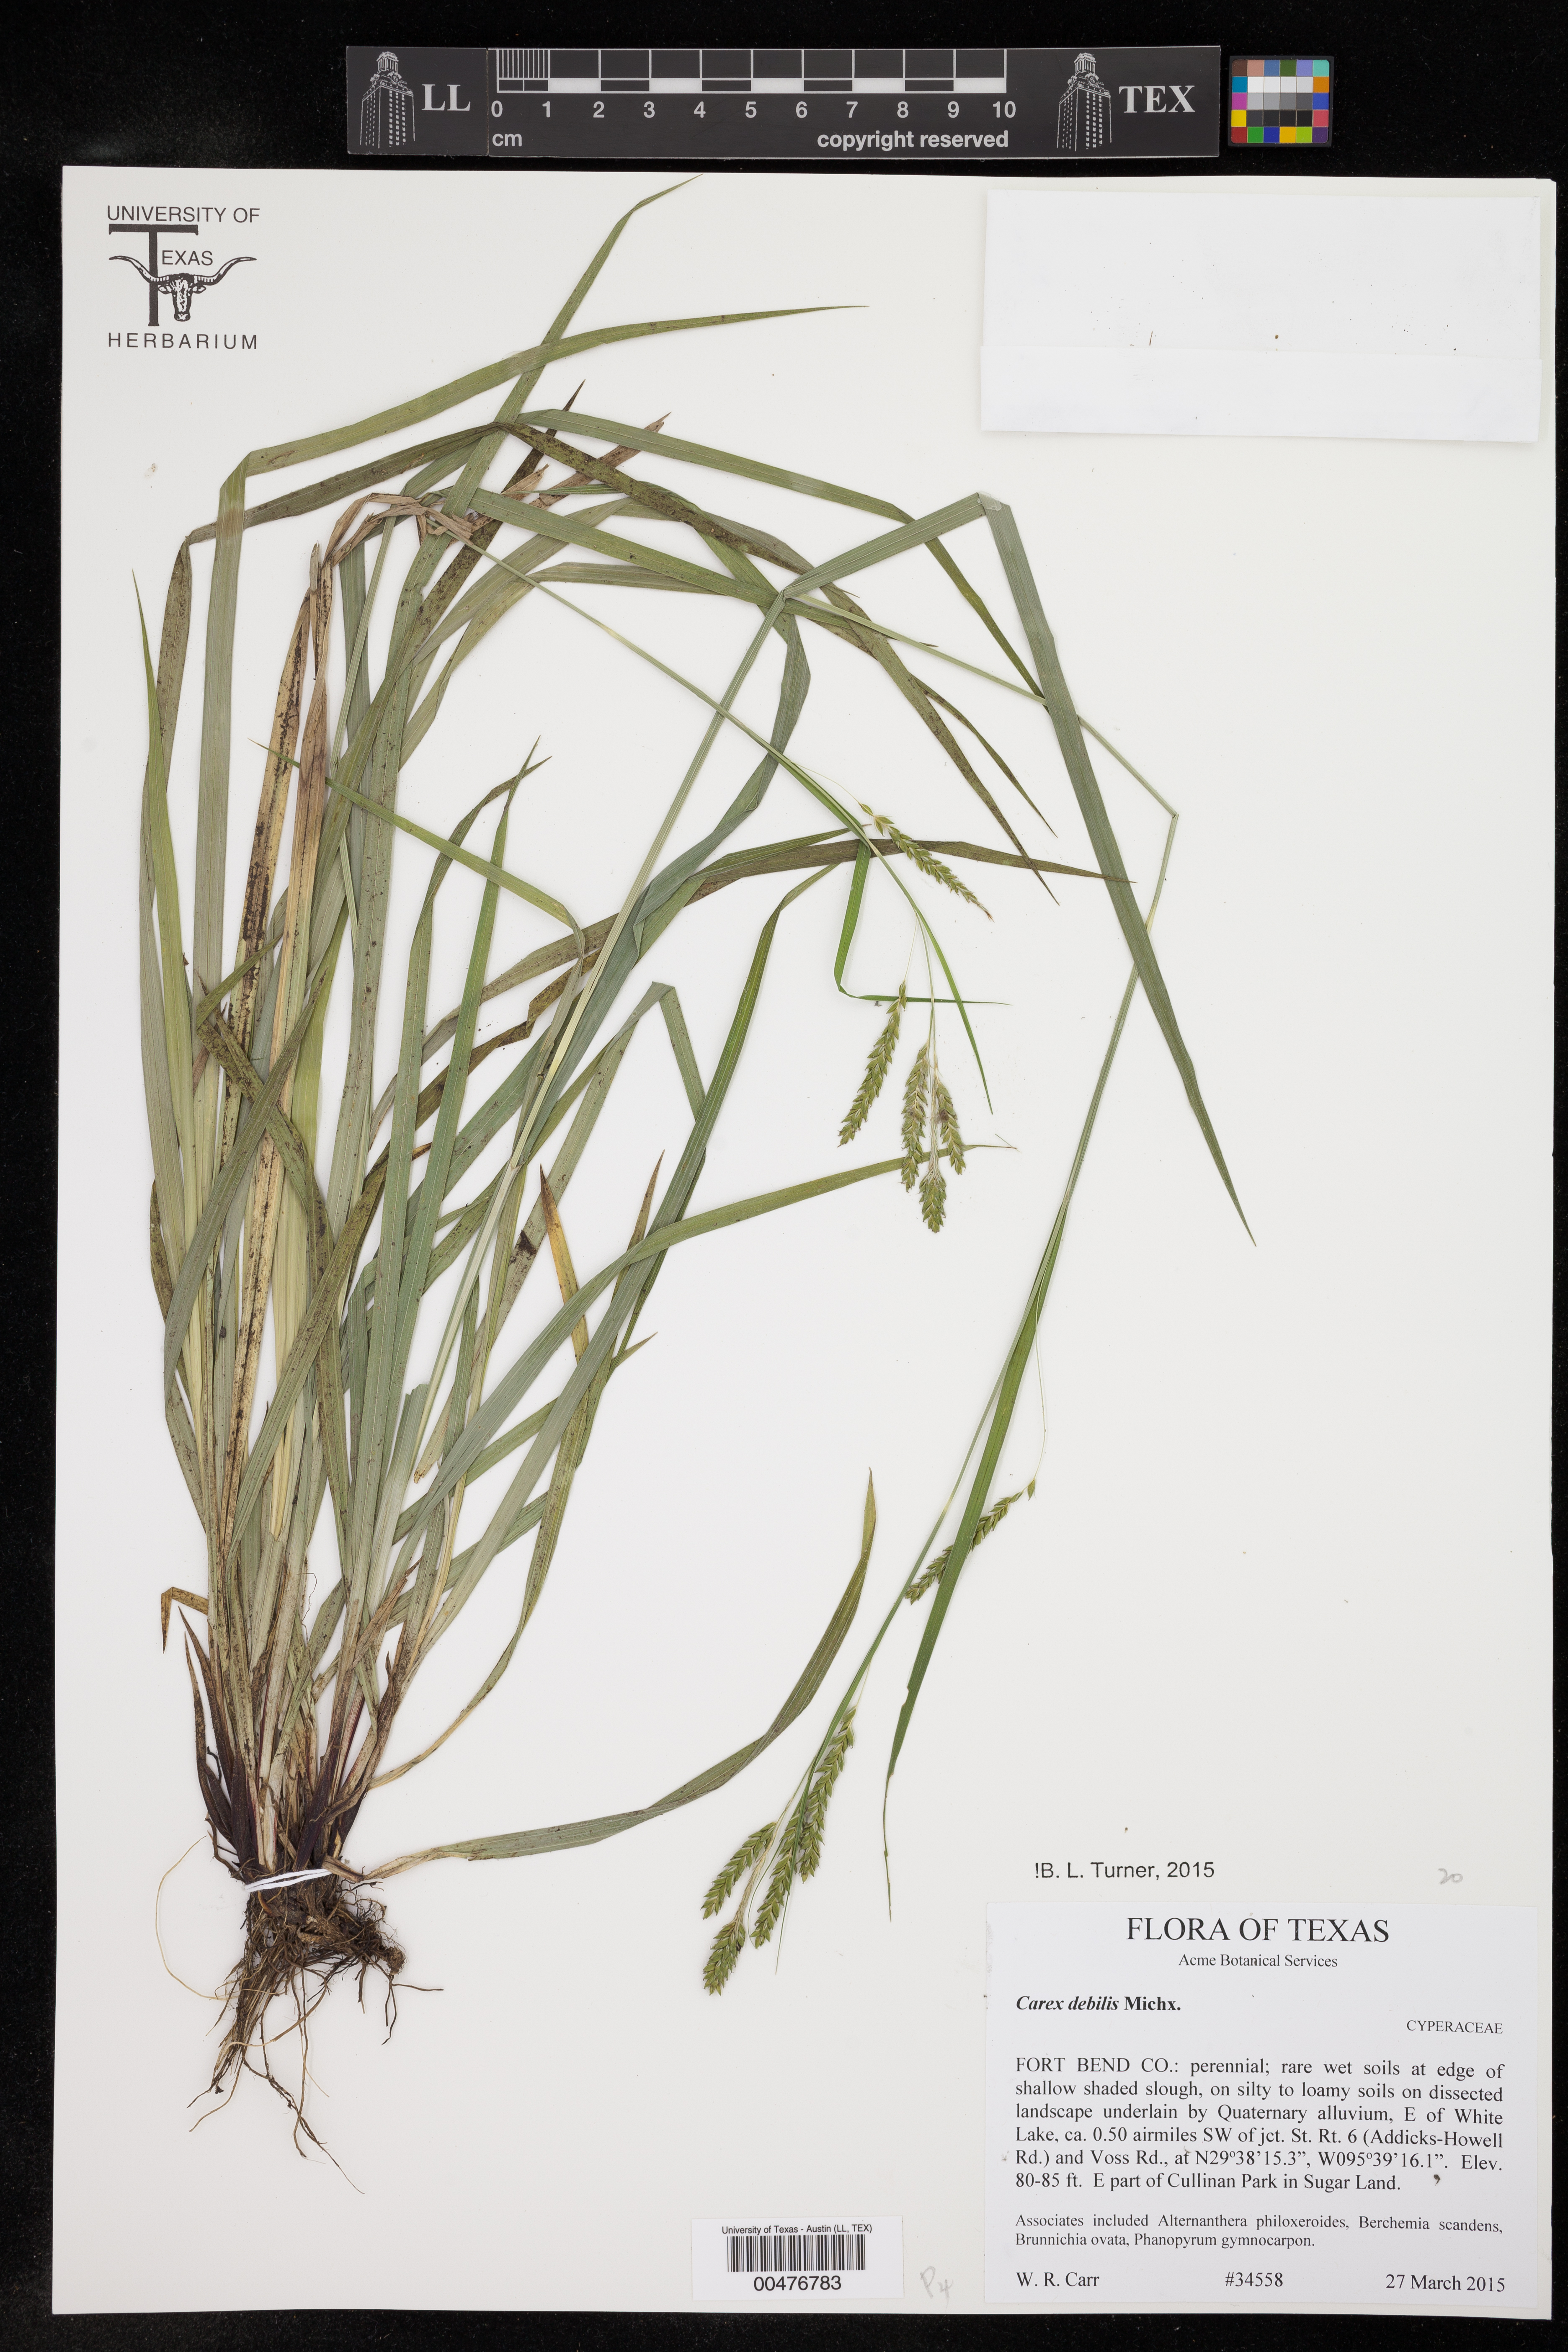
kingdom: Plantae
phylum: Tracheophyta
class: Liliopsida
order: Poales
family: Cyperaceae
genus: Carex
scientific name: Carex debilis
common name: White-edge sedge
